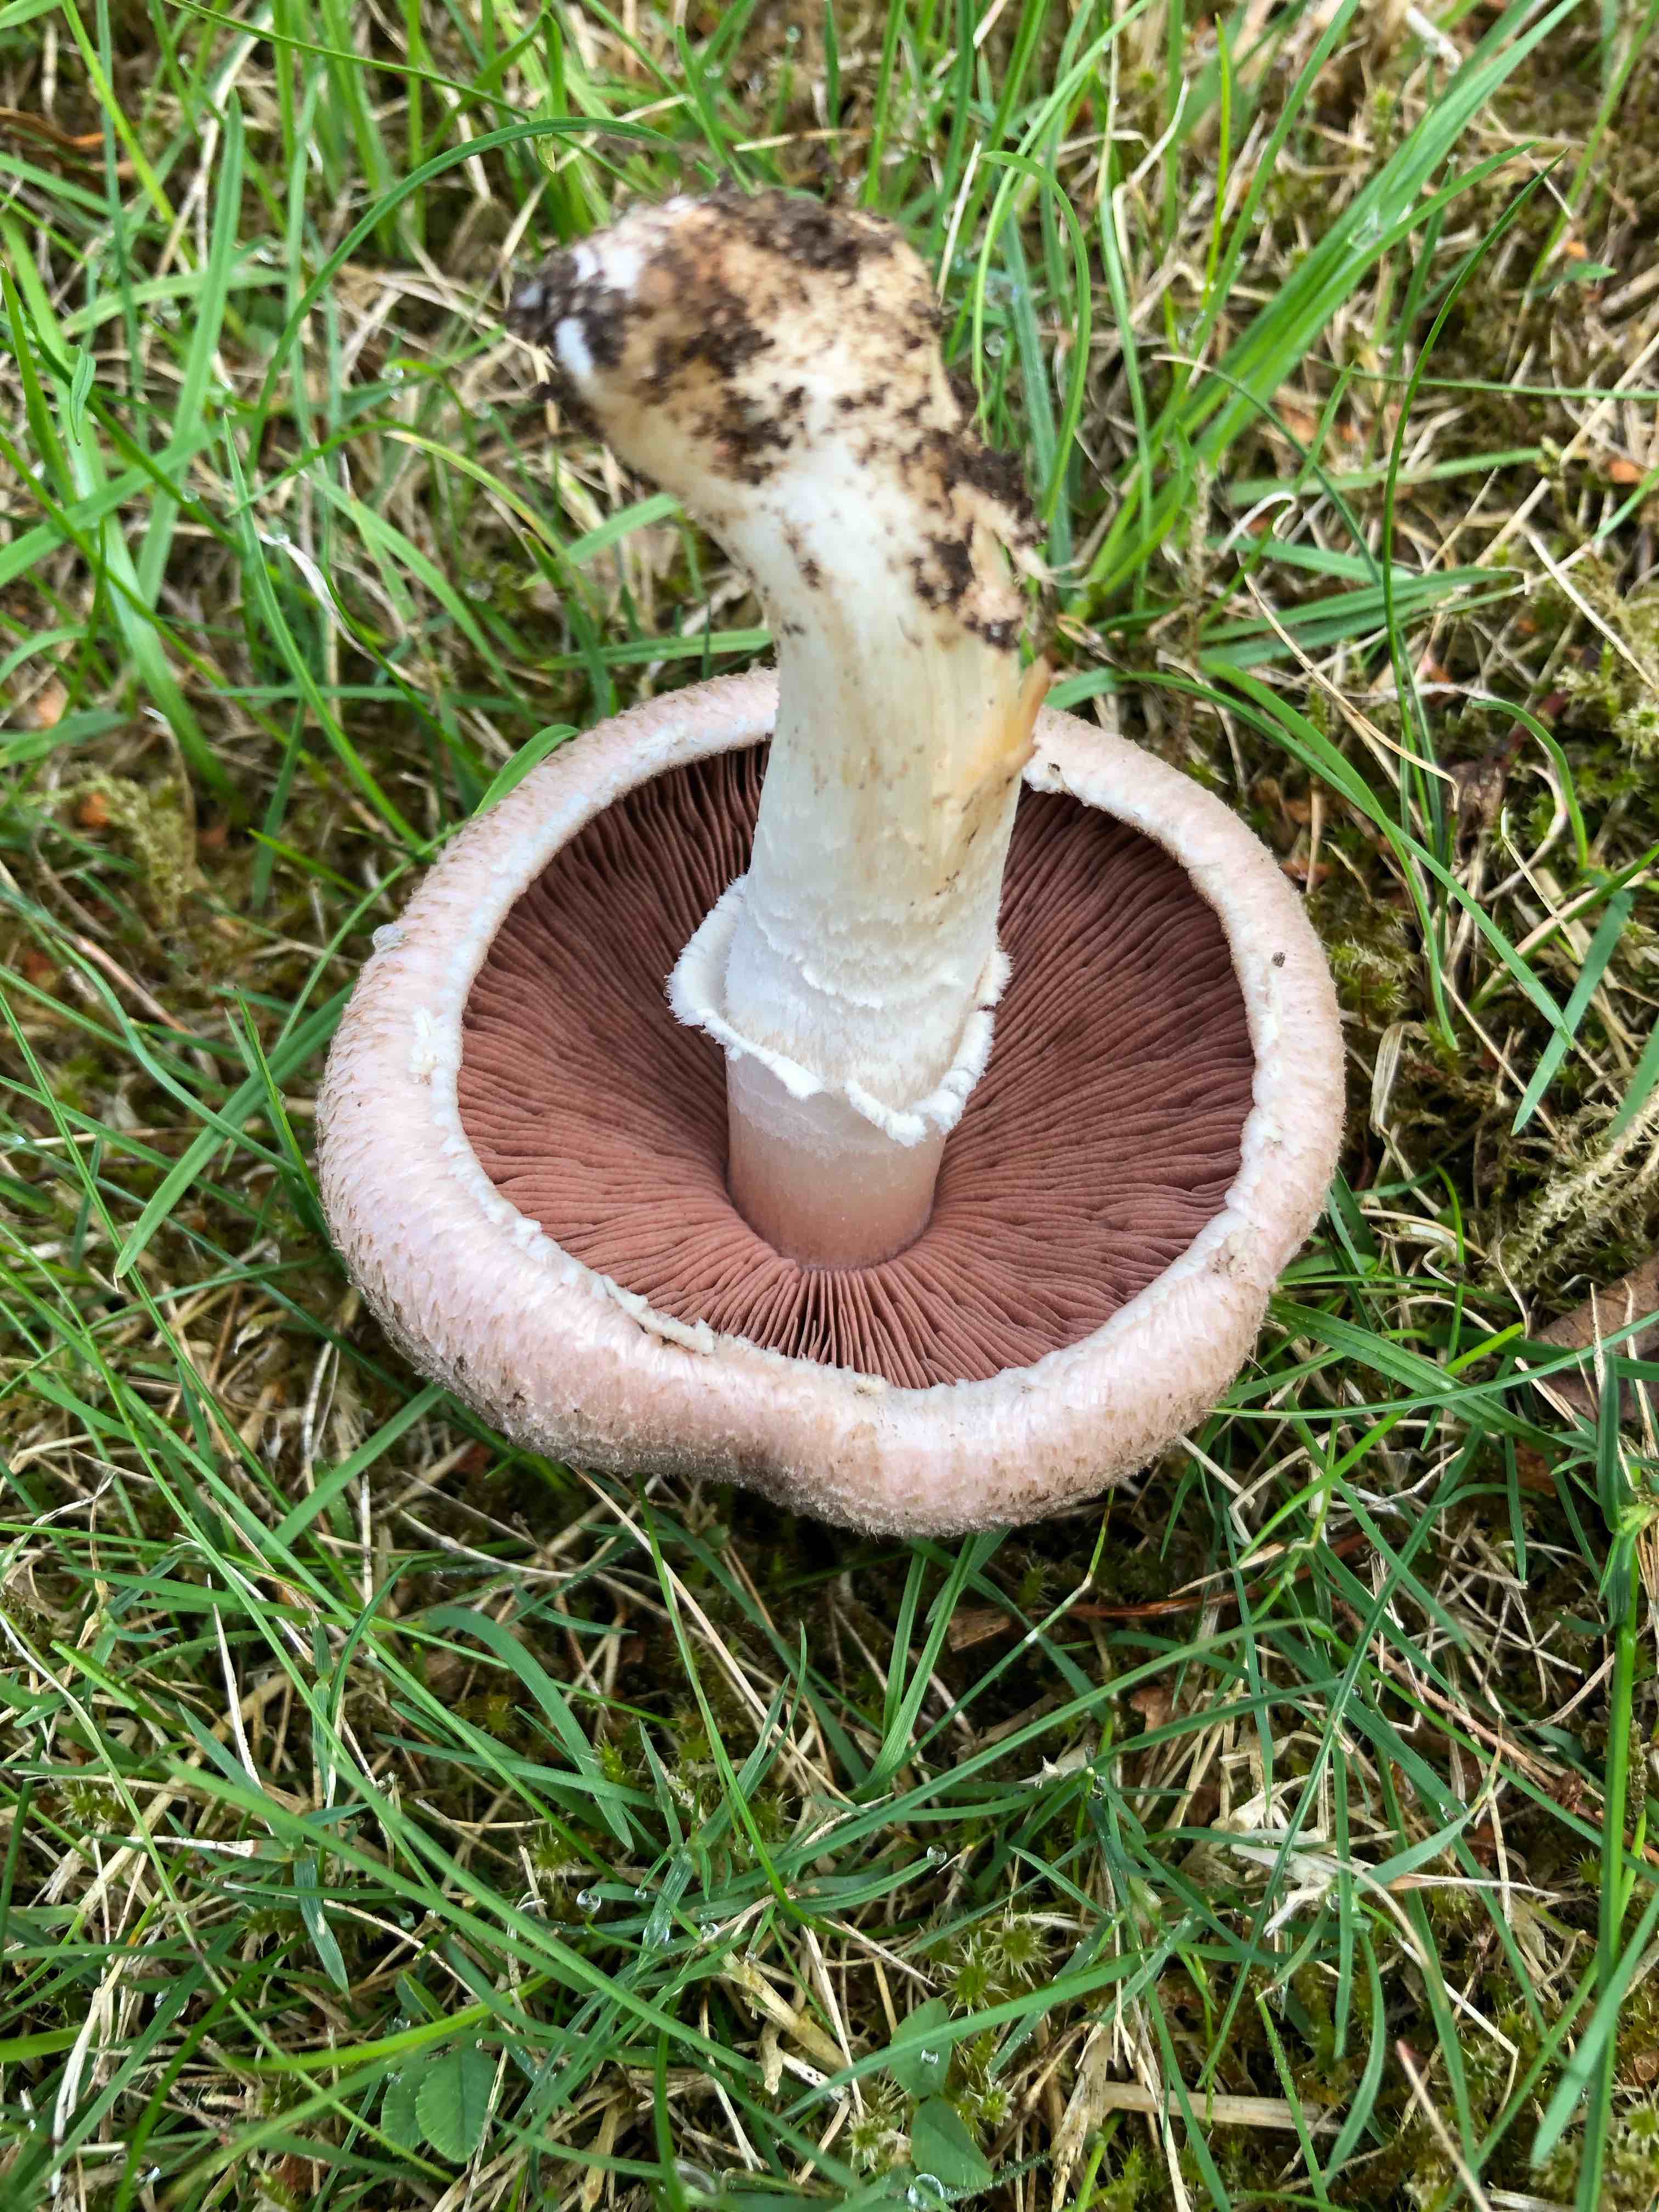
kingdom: Fungi
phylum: Basidiomycota
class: Agaricomycetes
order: Agaricales
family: Agaricaceae
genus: Agaricus
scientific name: Agaricus
